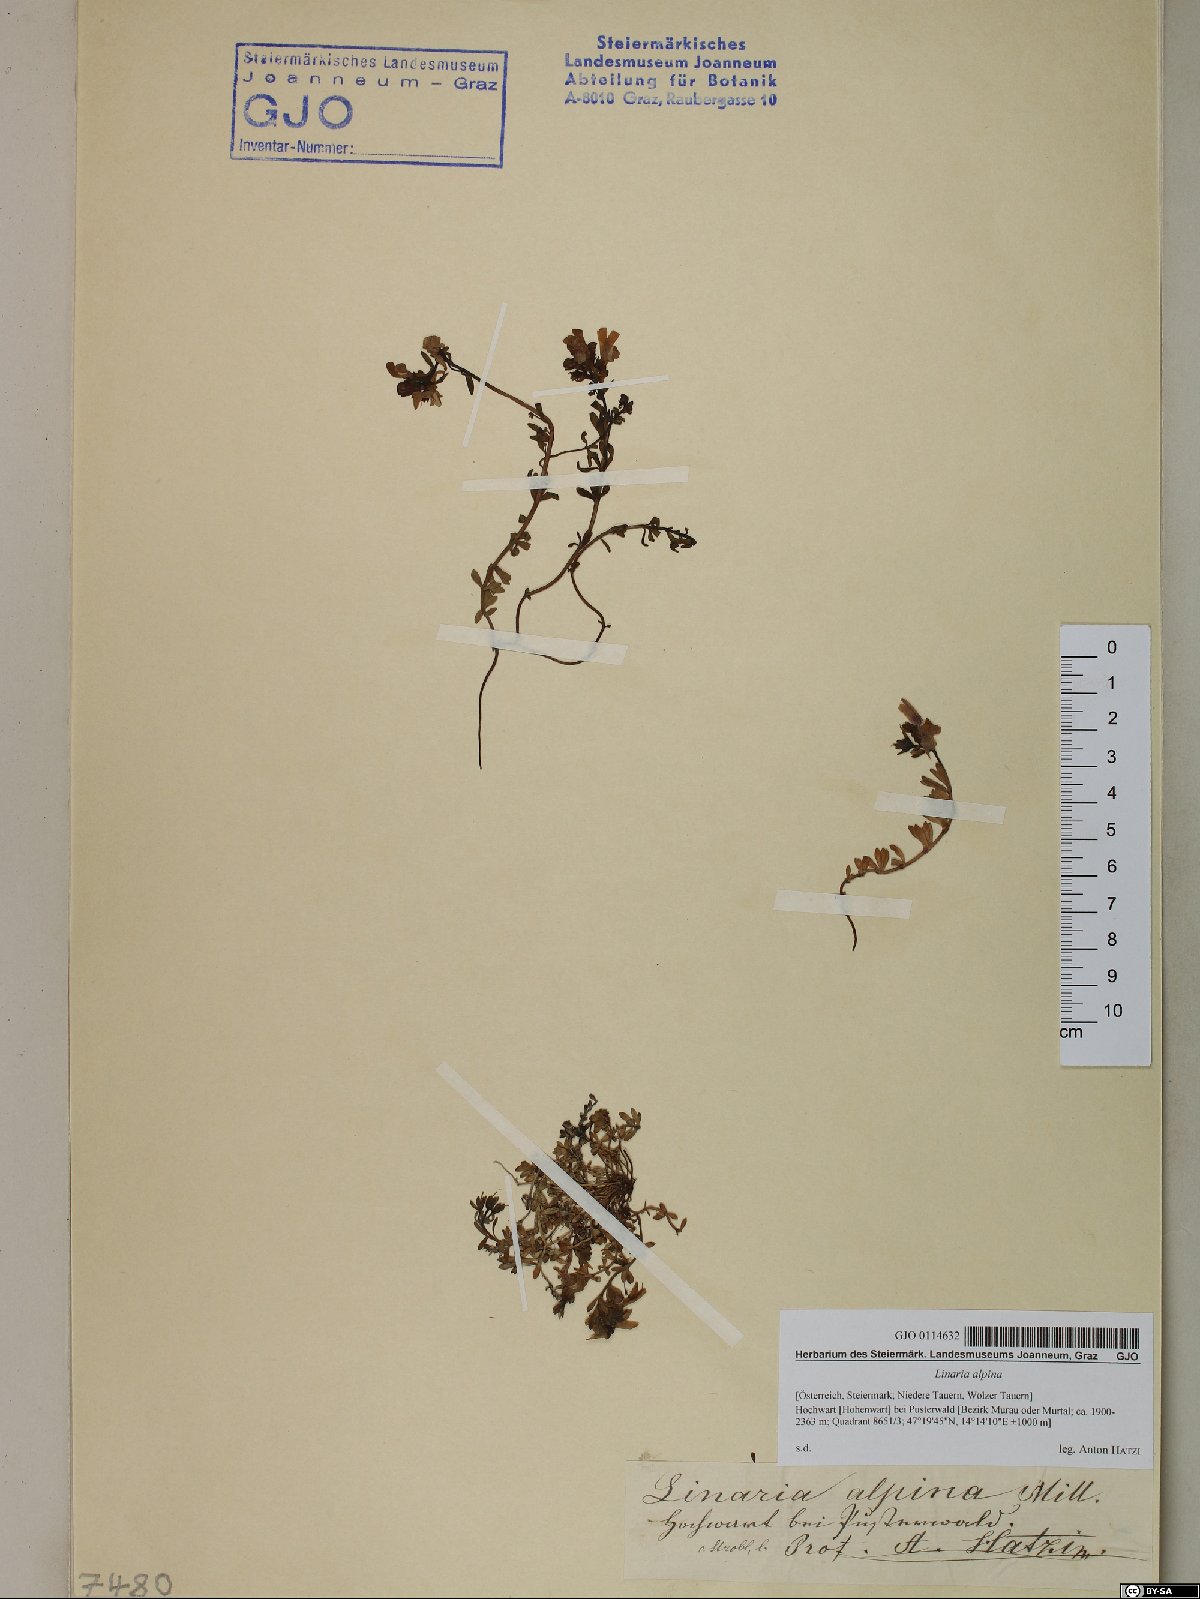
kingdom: Plantae
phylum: Tracheophyta
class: Magnoliopsida
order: Lamiales
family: Plantaginaceae
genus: Linaria
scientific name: Linaria alpina
